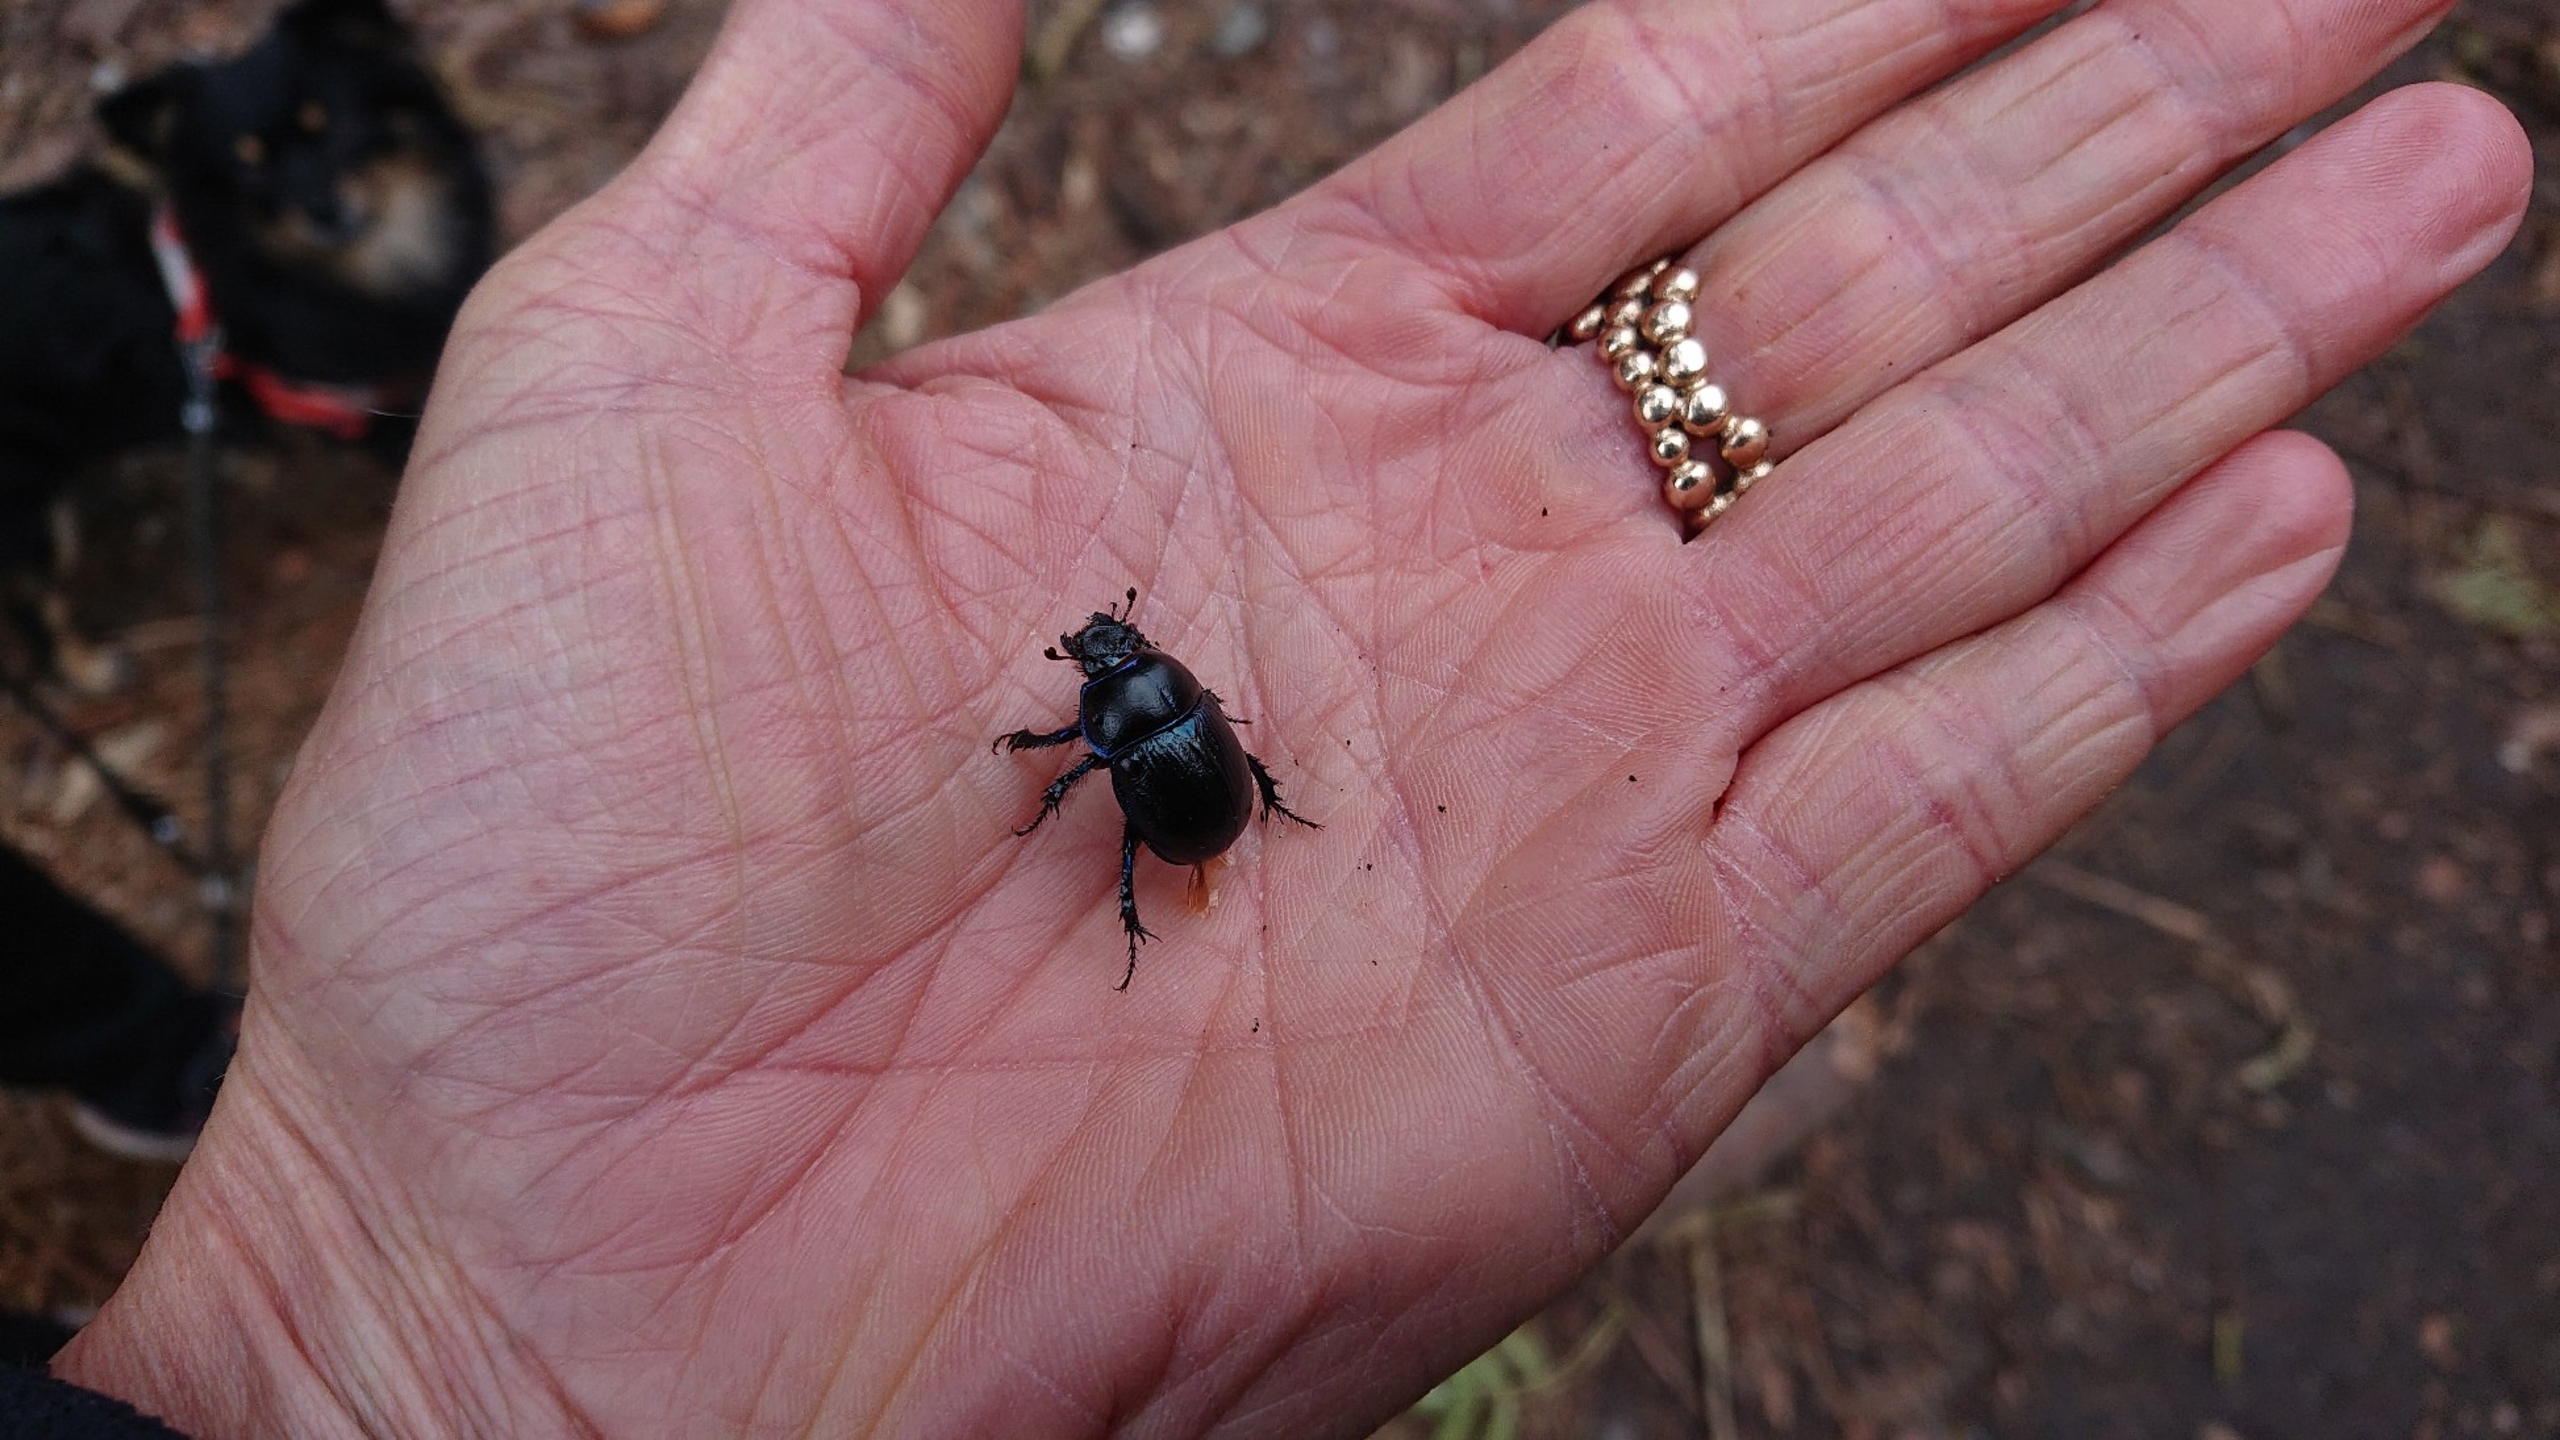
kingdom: Animalia
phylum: Arthropoda
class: Insecta
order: Coleoptera
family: Geotrupidae
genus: Anoplotrupes
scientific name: Anoplotrupes stercorosus
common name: Skovskarnbasse
